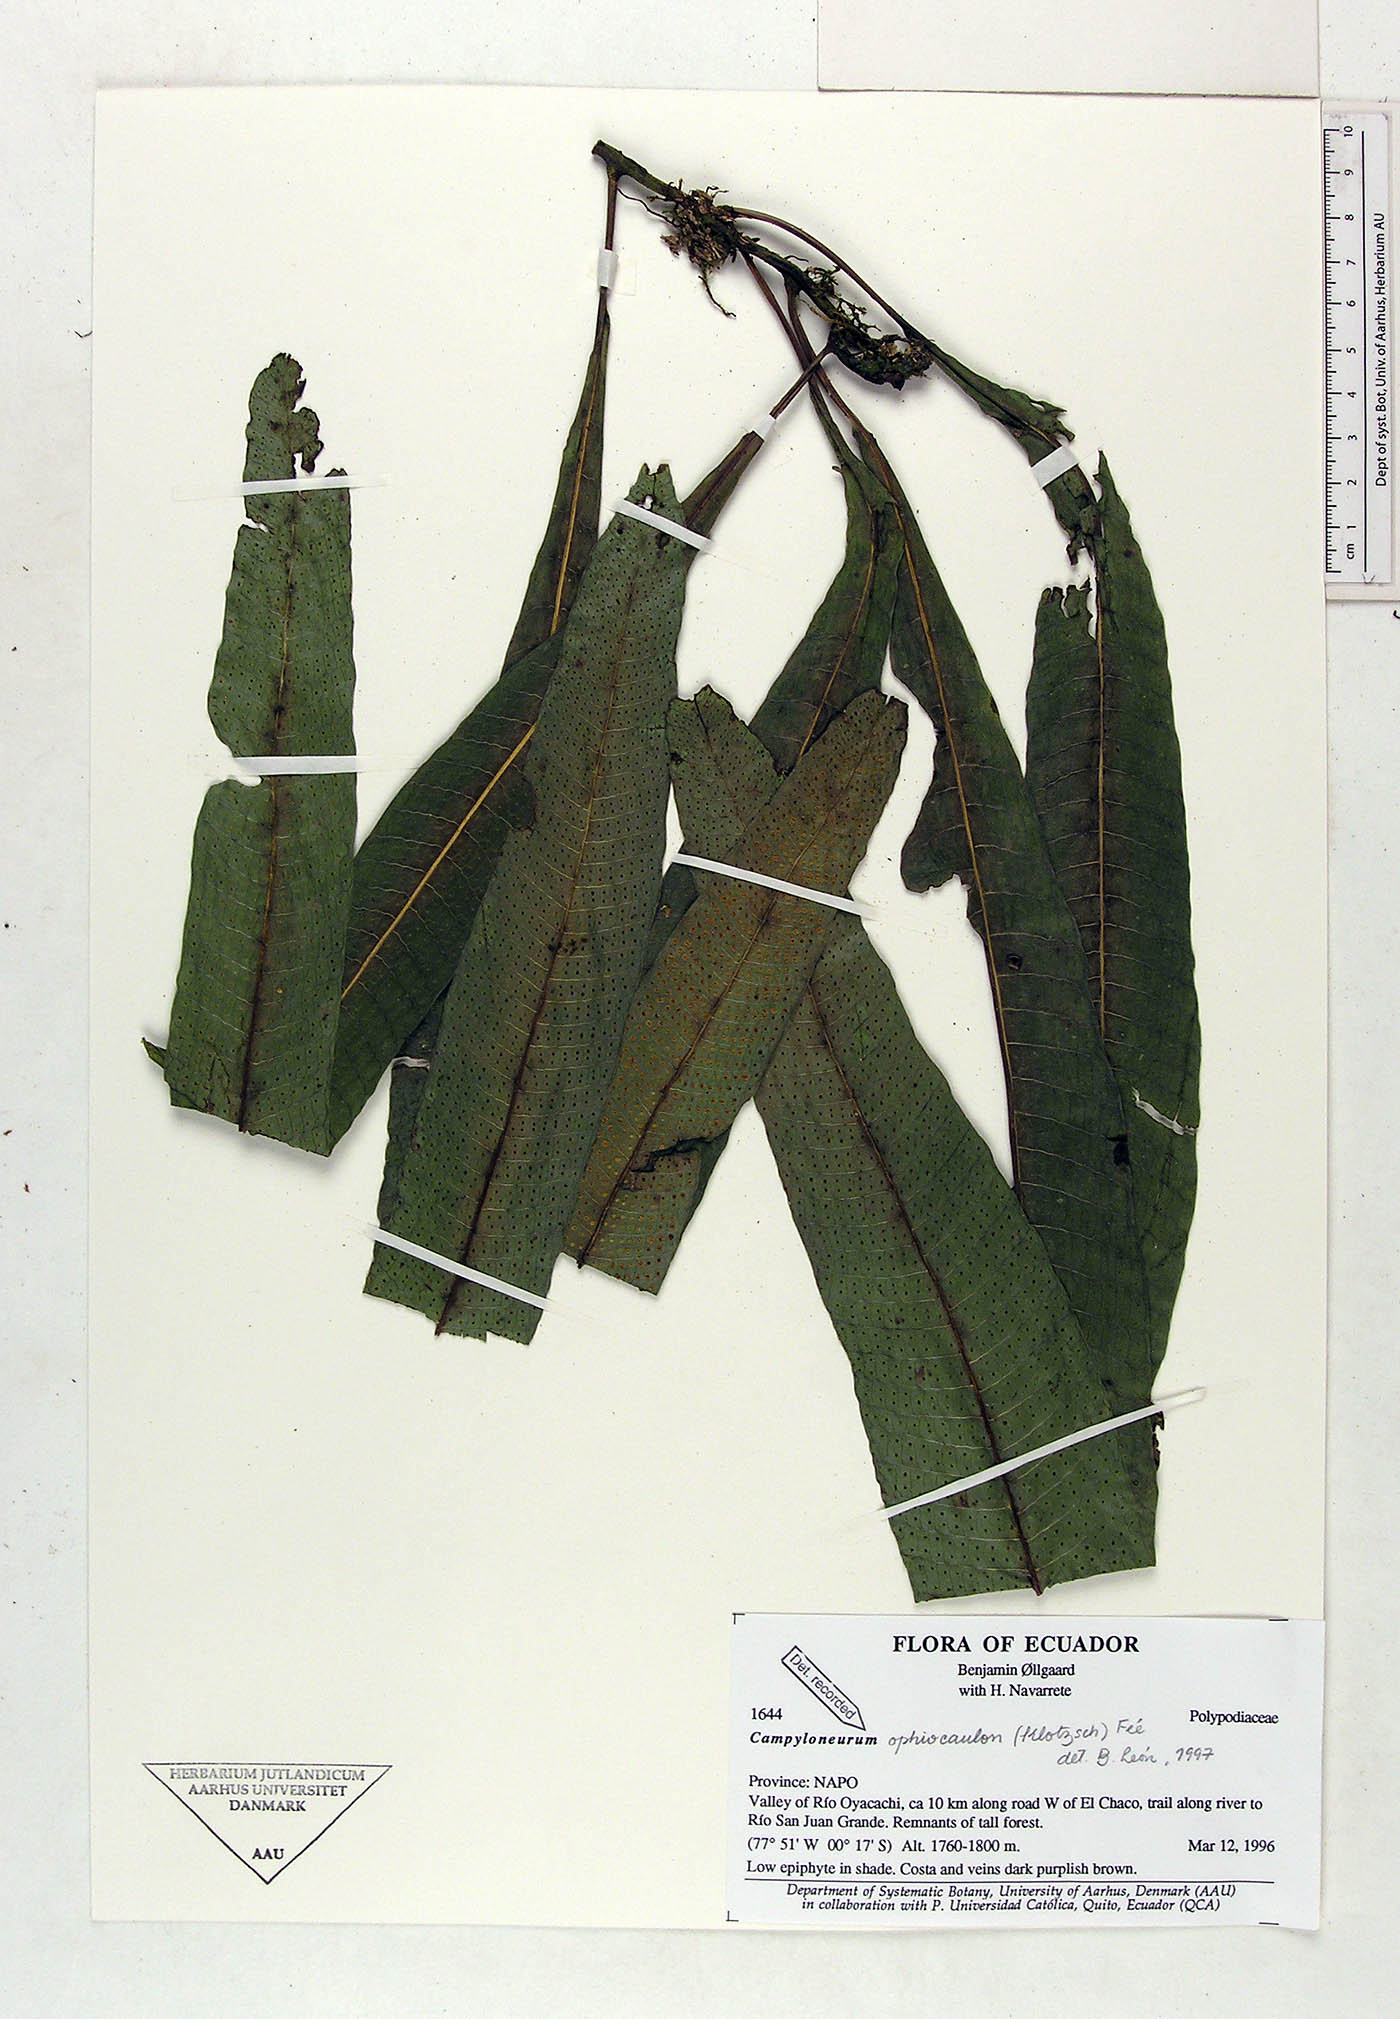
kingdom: Plantae
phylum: Tracheophyta
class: Polypodiopsida
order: Polypodiales
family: Polypodiaceae
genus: Campyloneurum
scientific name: Campyloneurum ophiocaulon
